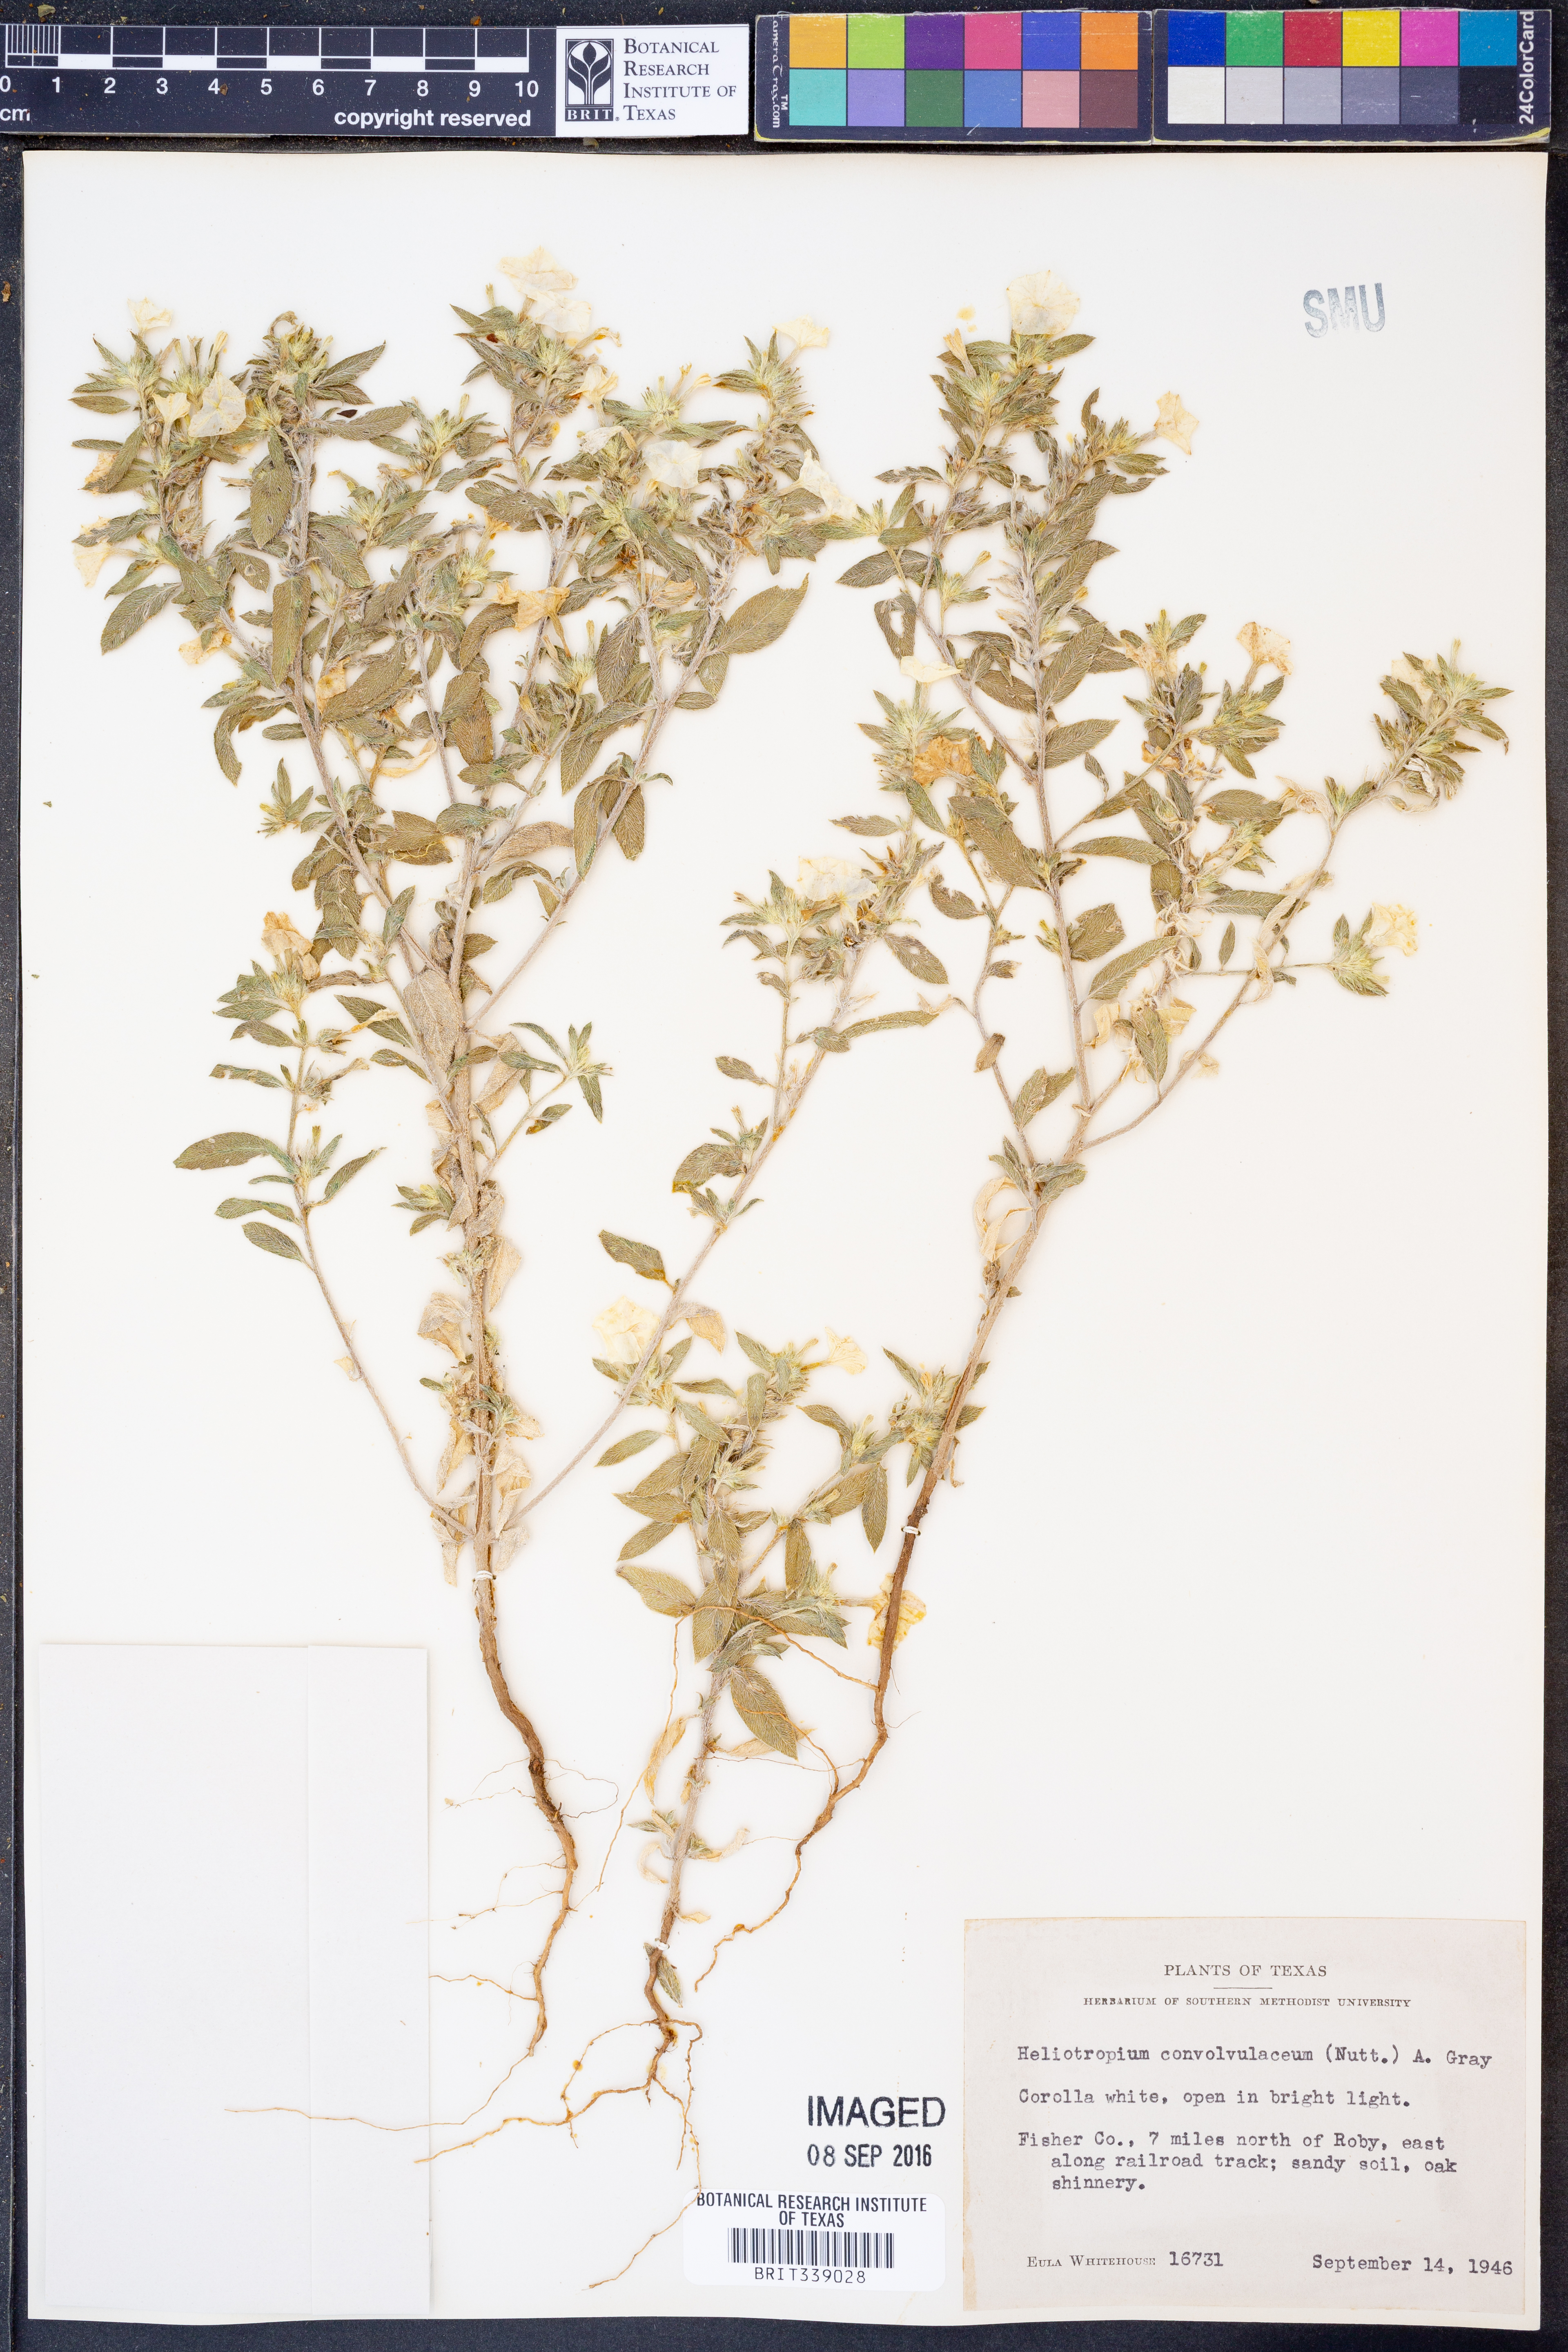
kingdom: Plantae
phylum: Tracheophyta
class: Magnoliopsida
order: Boraginales
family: Heliotropiaceae
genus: Euploca
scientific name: Euploca convolvulacea
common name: Bindweed heliotrope
